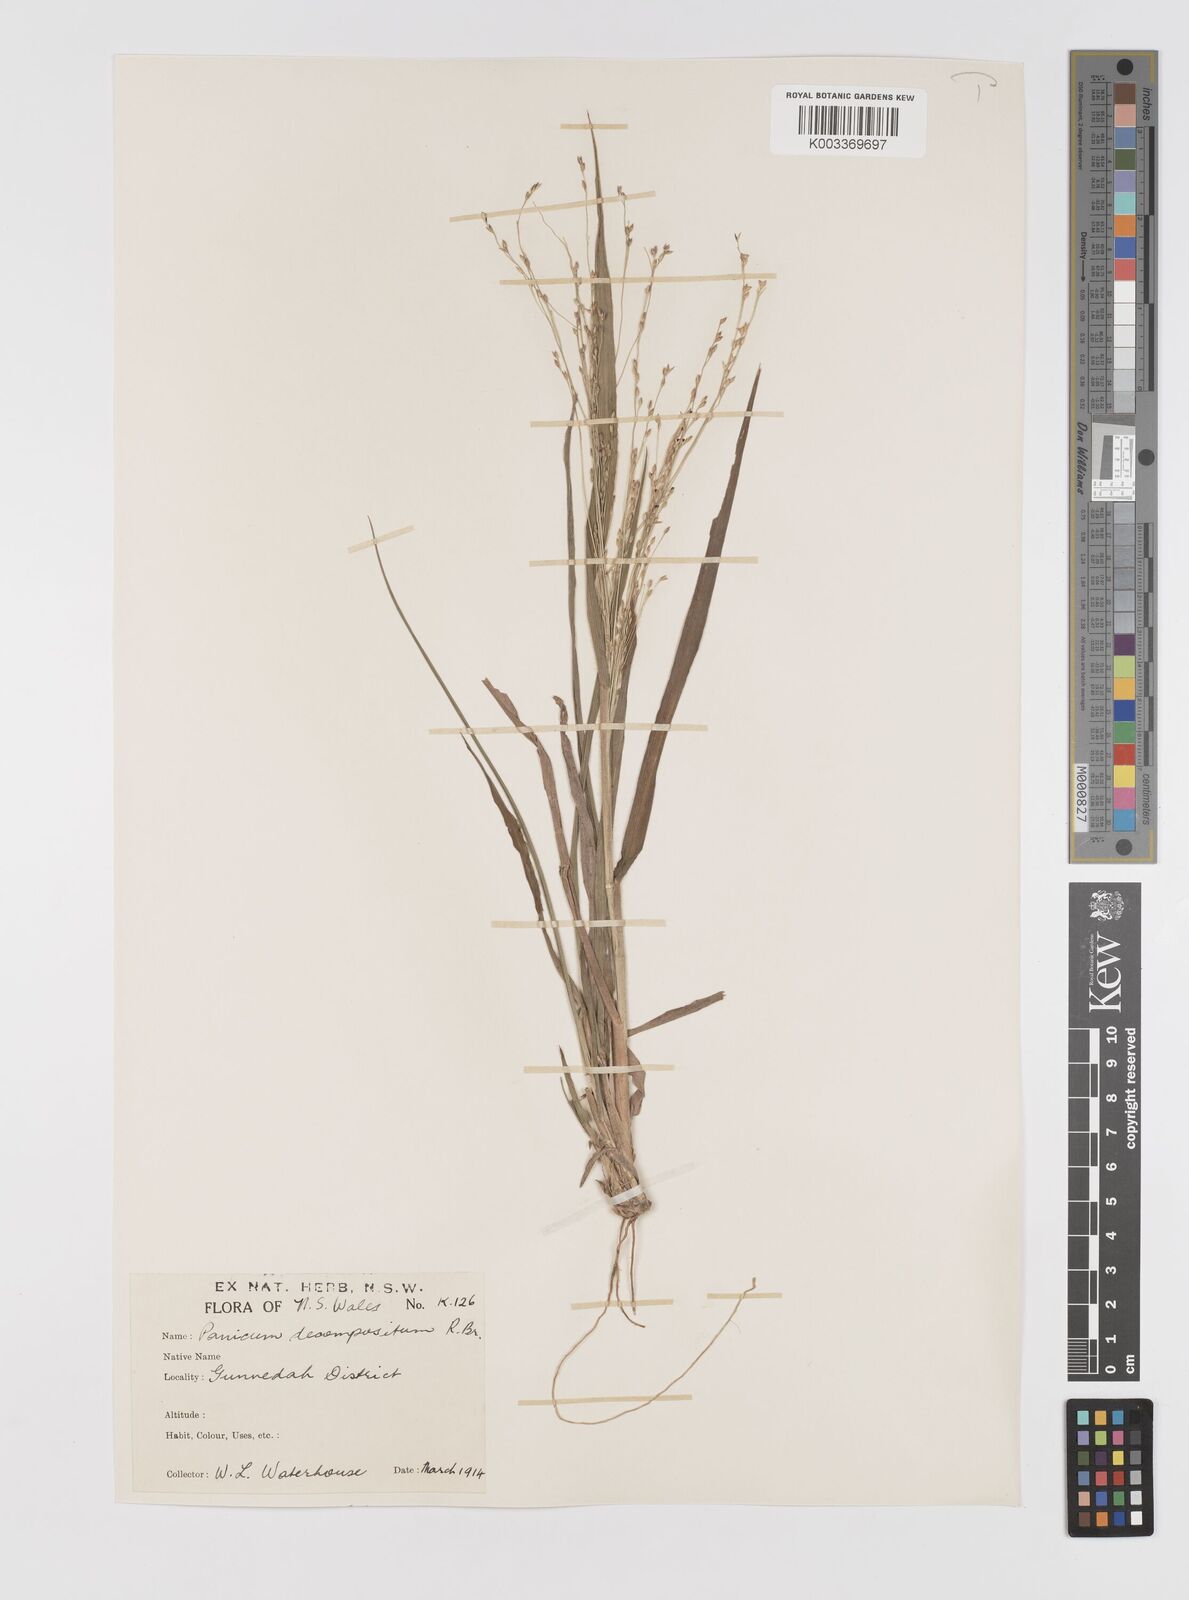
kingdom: Plantae
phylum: Tracheophyta
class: Liliopsida
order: Poales
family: Poaceae
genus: Panicum
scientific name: Panicum decompositum
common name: Australian millet
